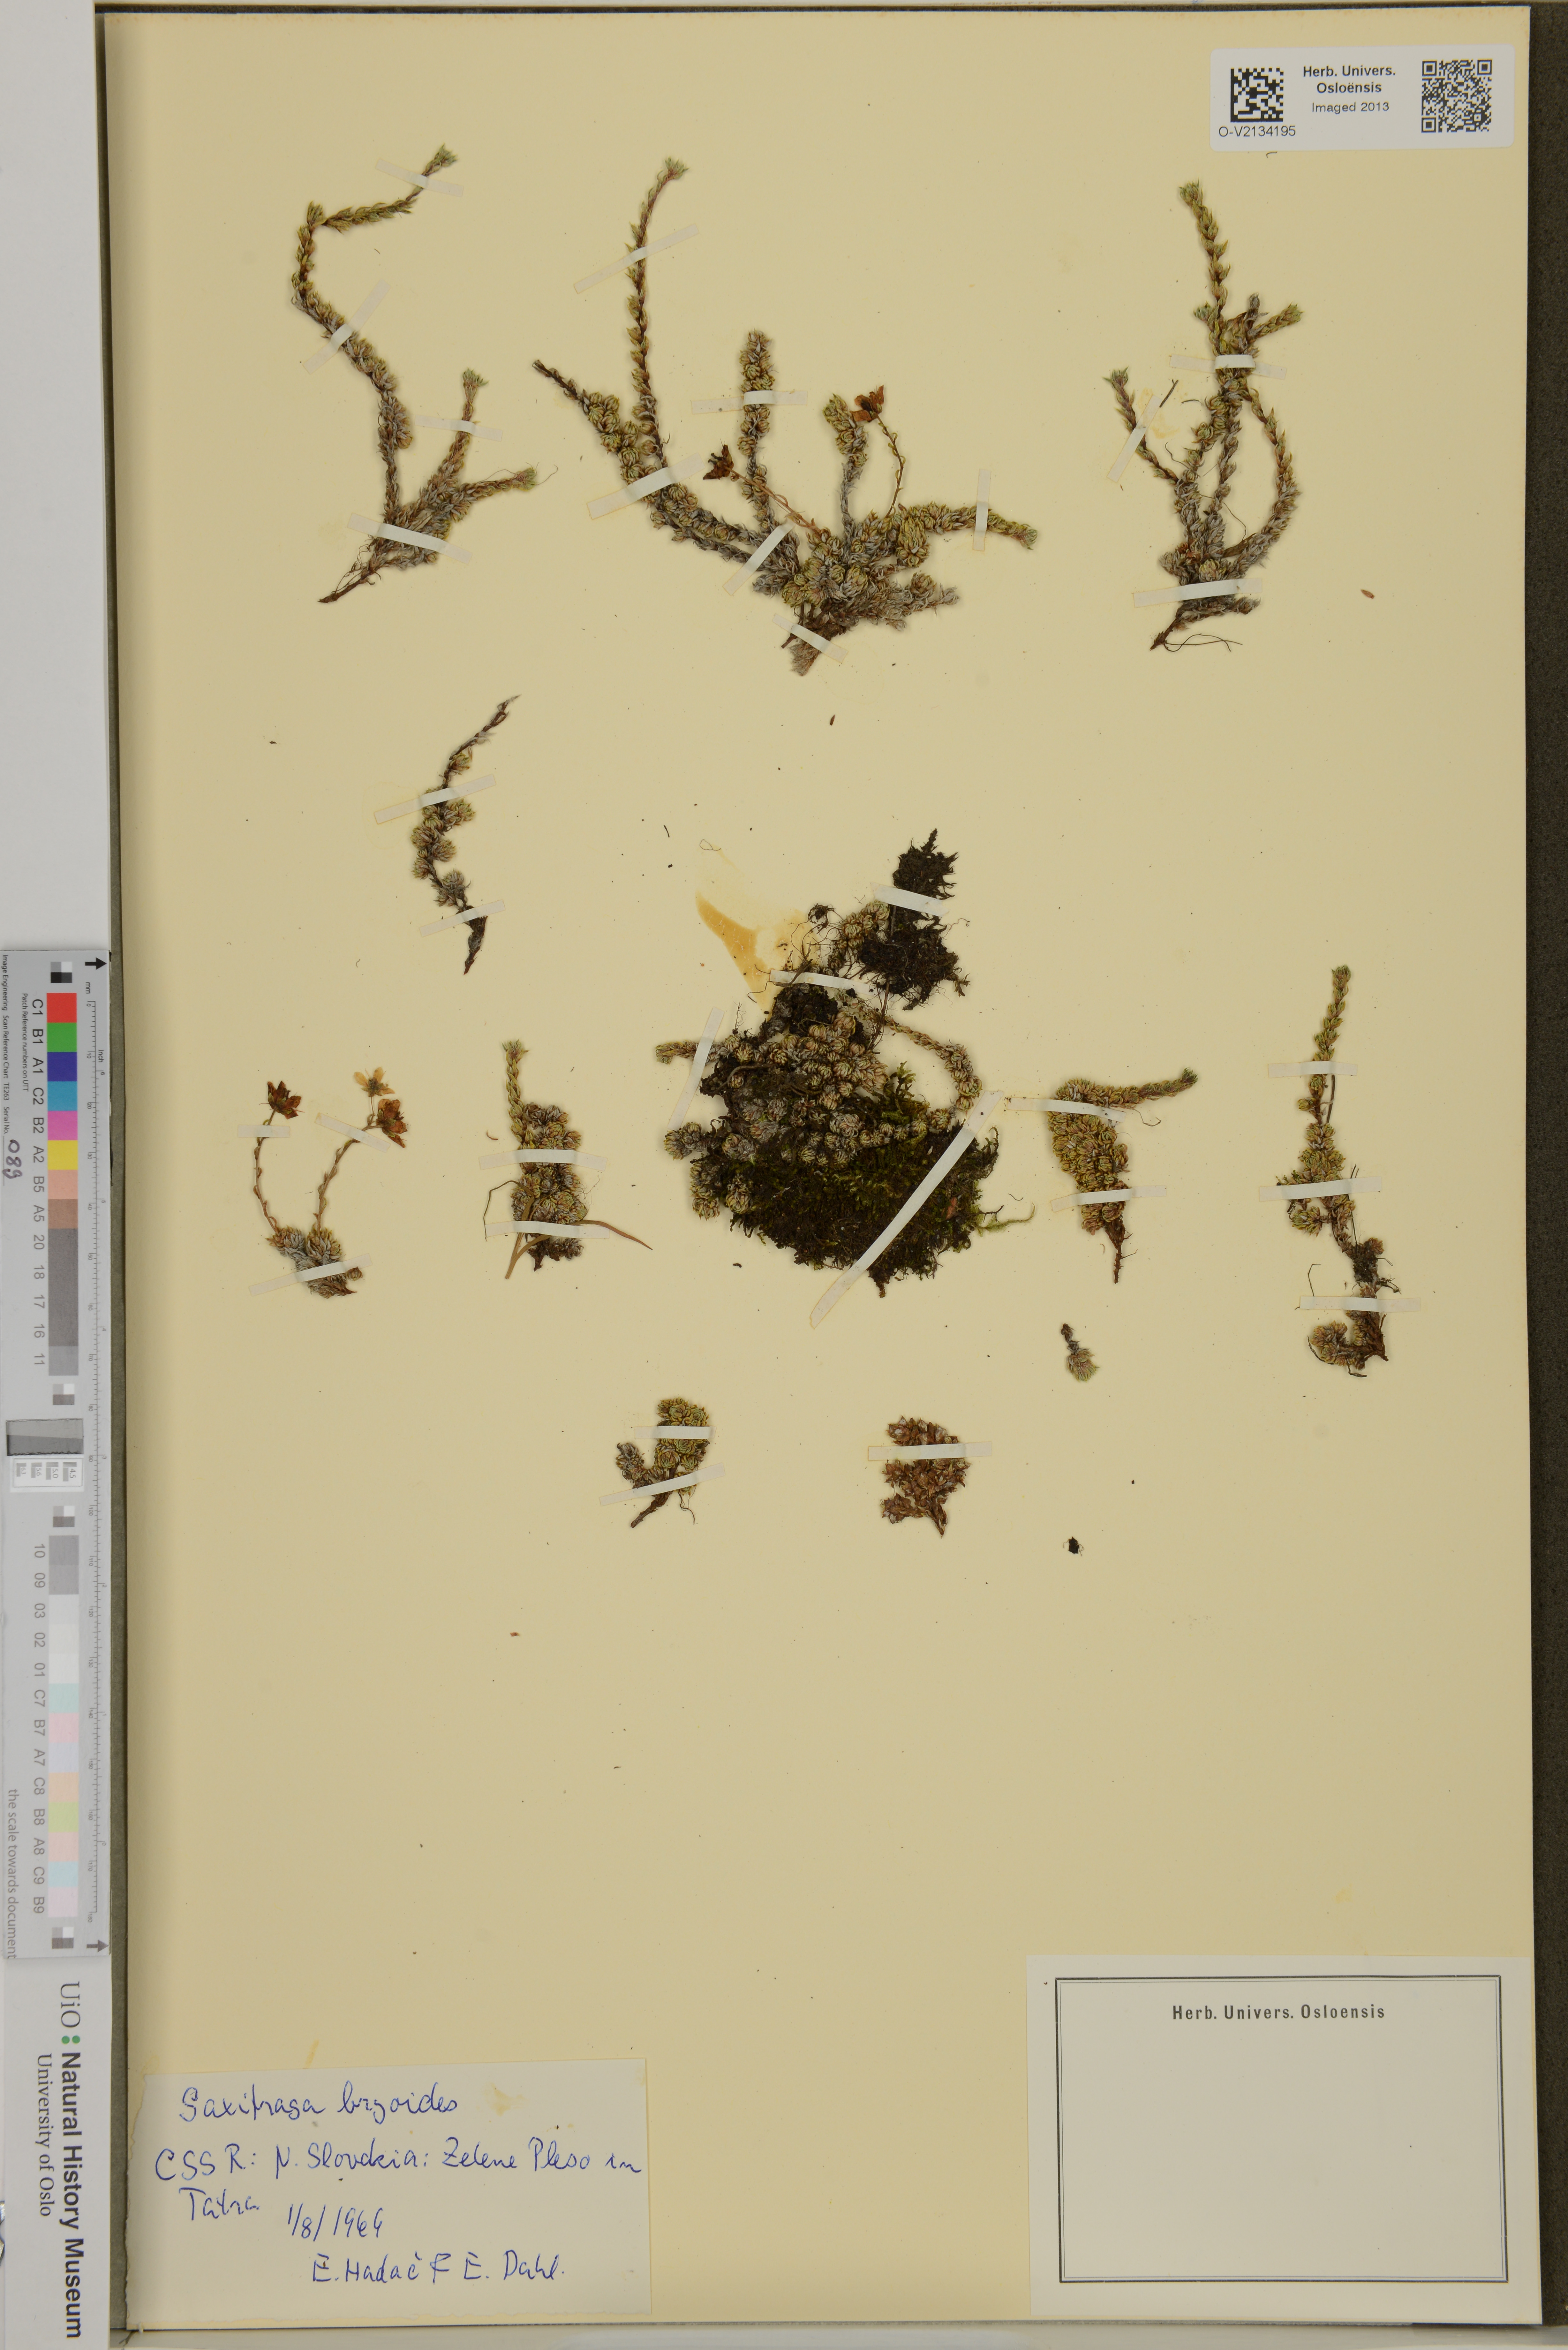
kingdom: Plantae
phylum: Tracheophyta
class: Magnoliopsida
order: Saxifragales
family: Saxifragaceae
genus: Saxifraga
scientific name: Saxifraga bryoides
